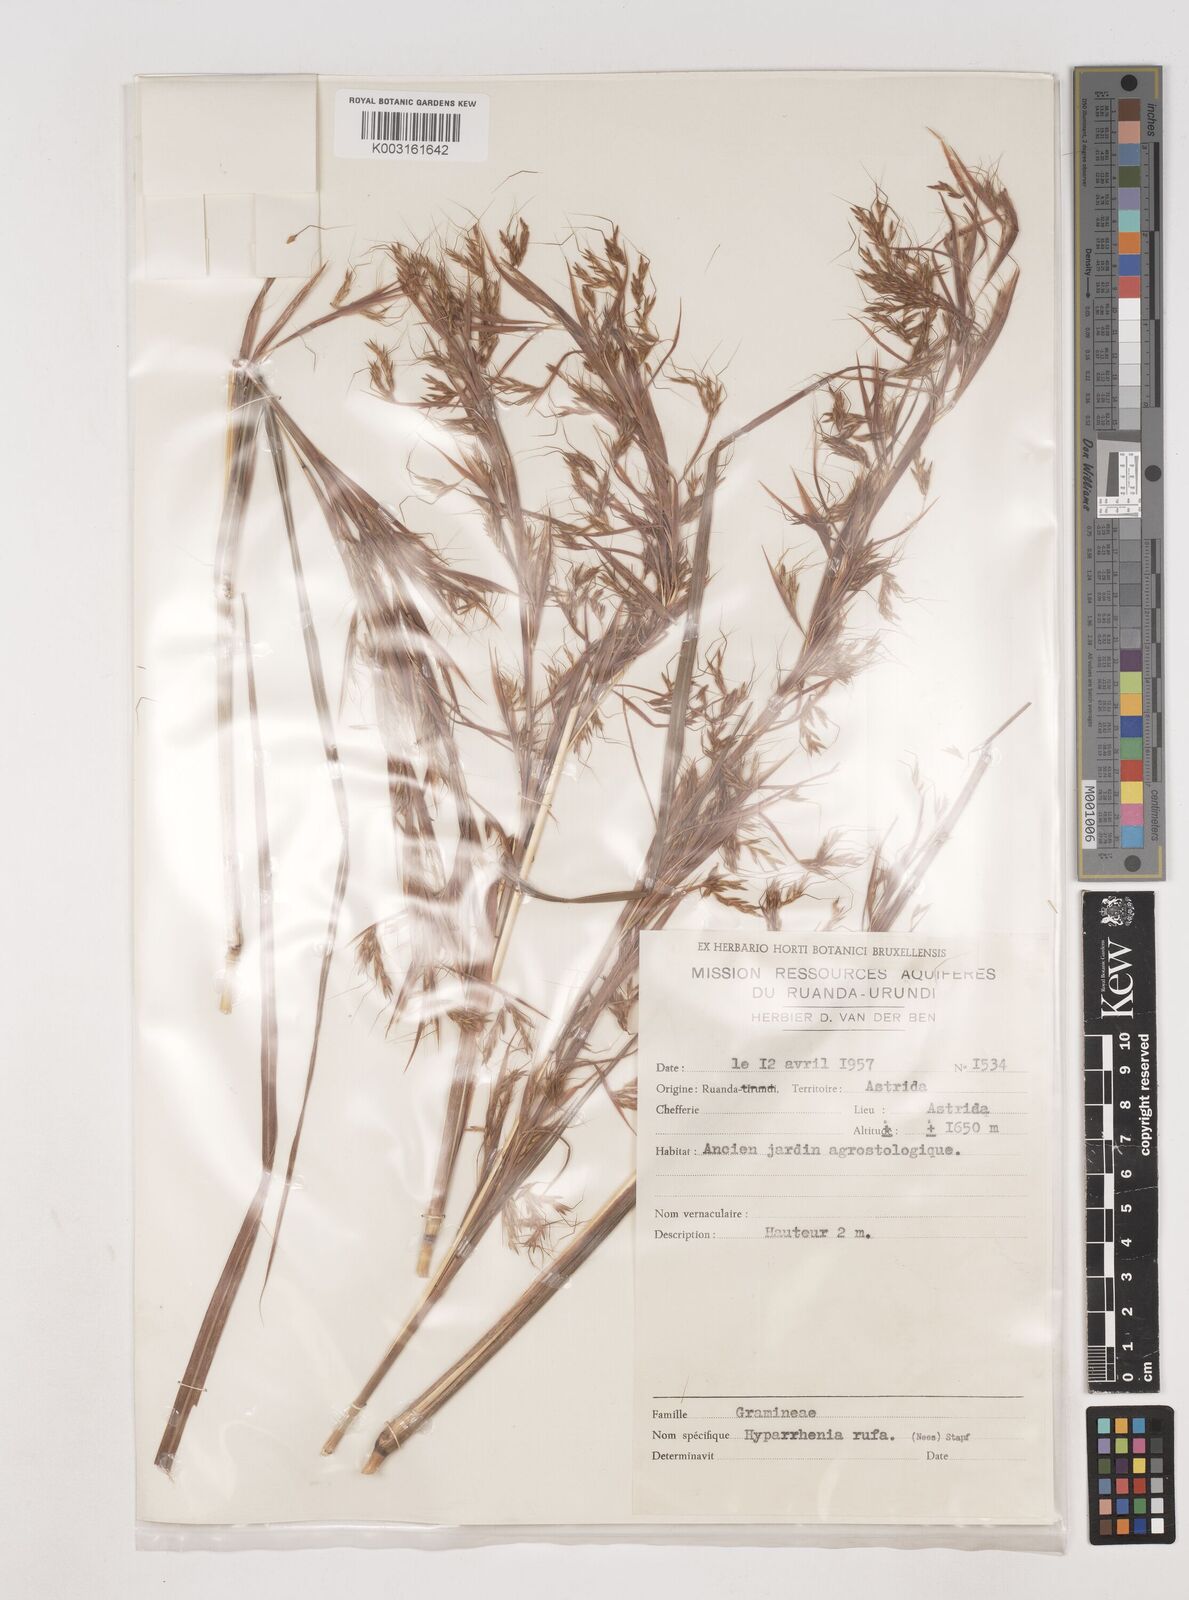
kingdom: Plantae
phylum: Tracheophyta
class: Liliopsida
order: Poales
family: Poaceae
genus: Hyparrhenia
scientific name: Hyparrhenia rufa
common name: Jaraguagrass
